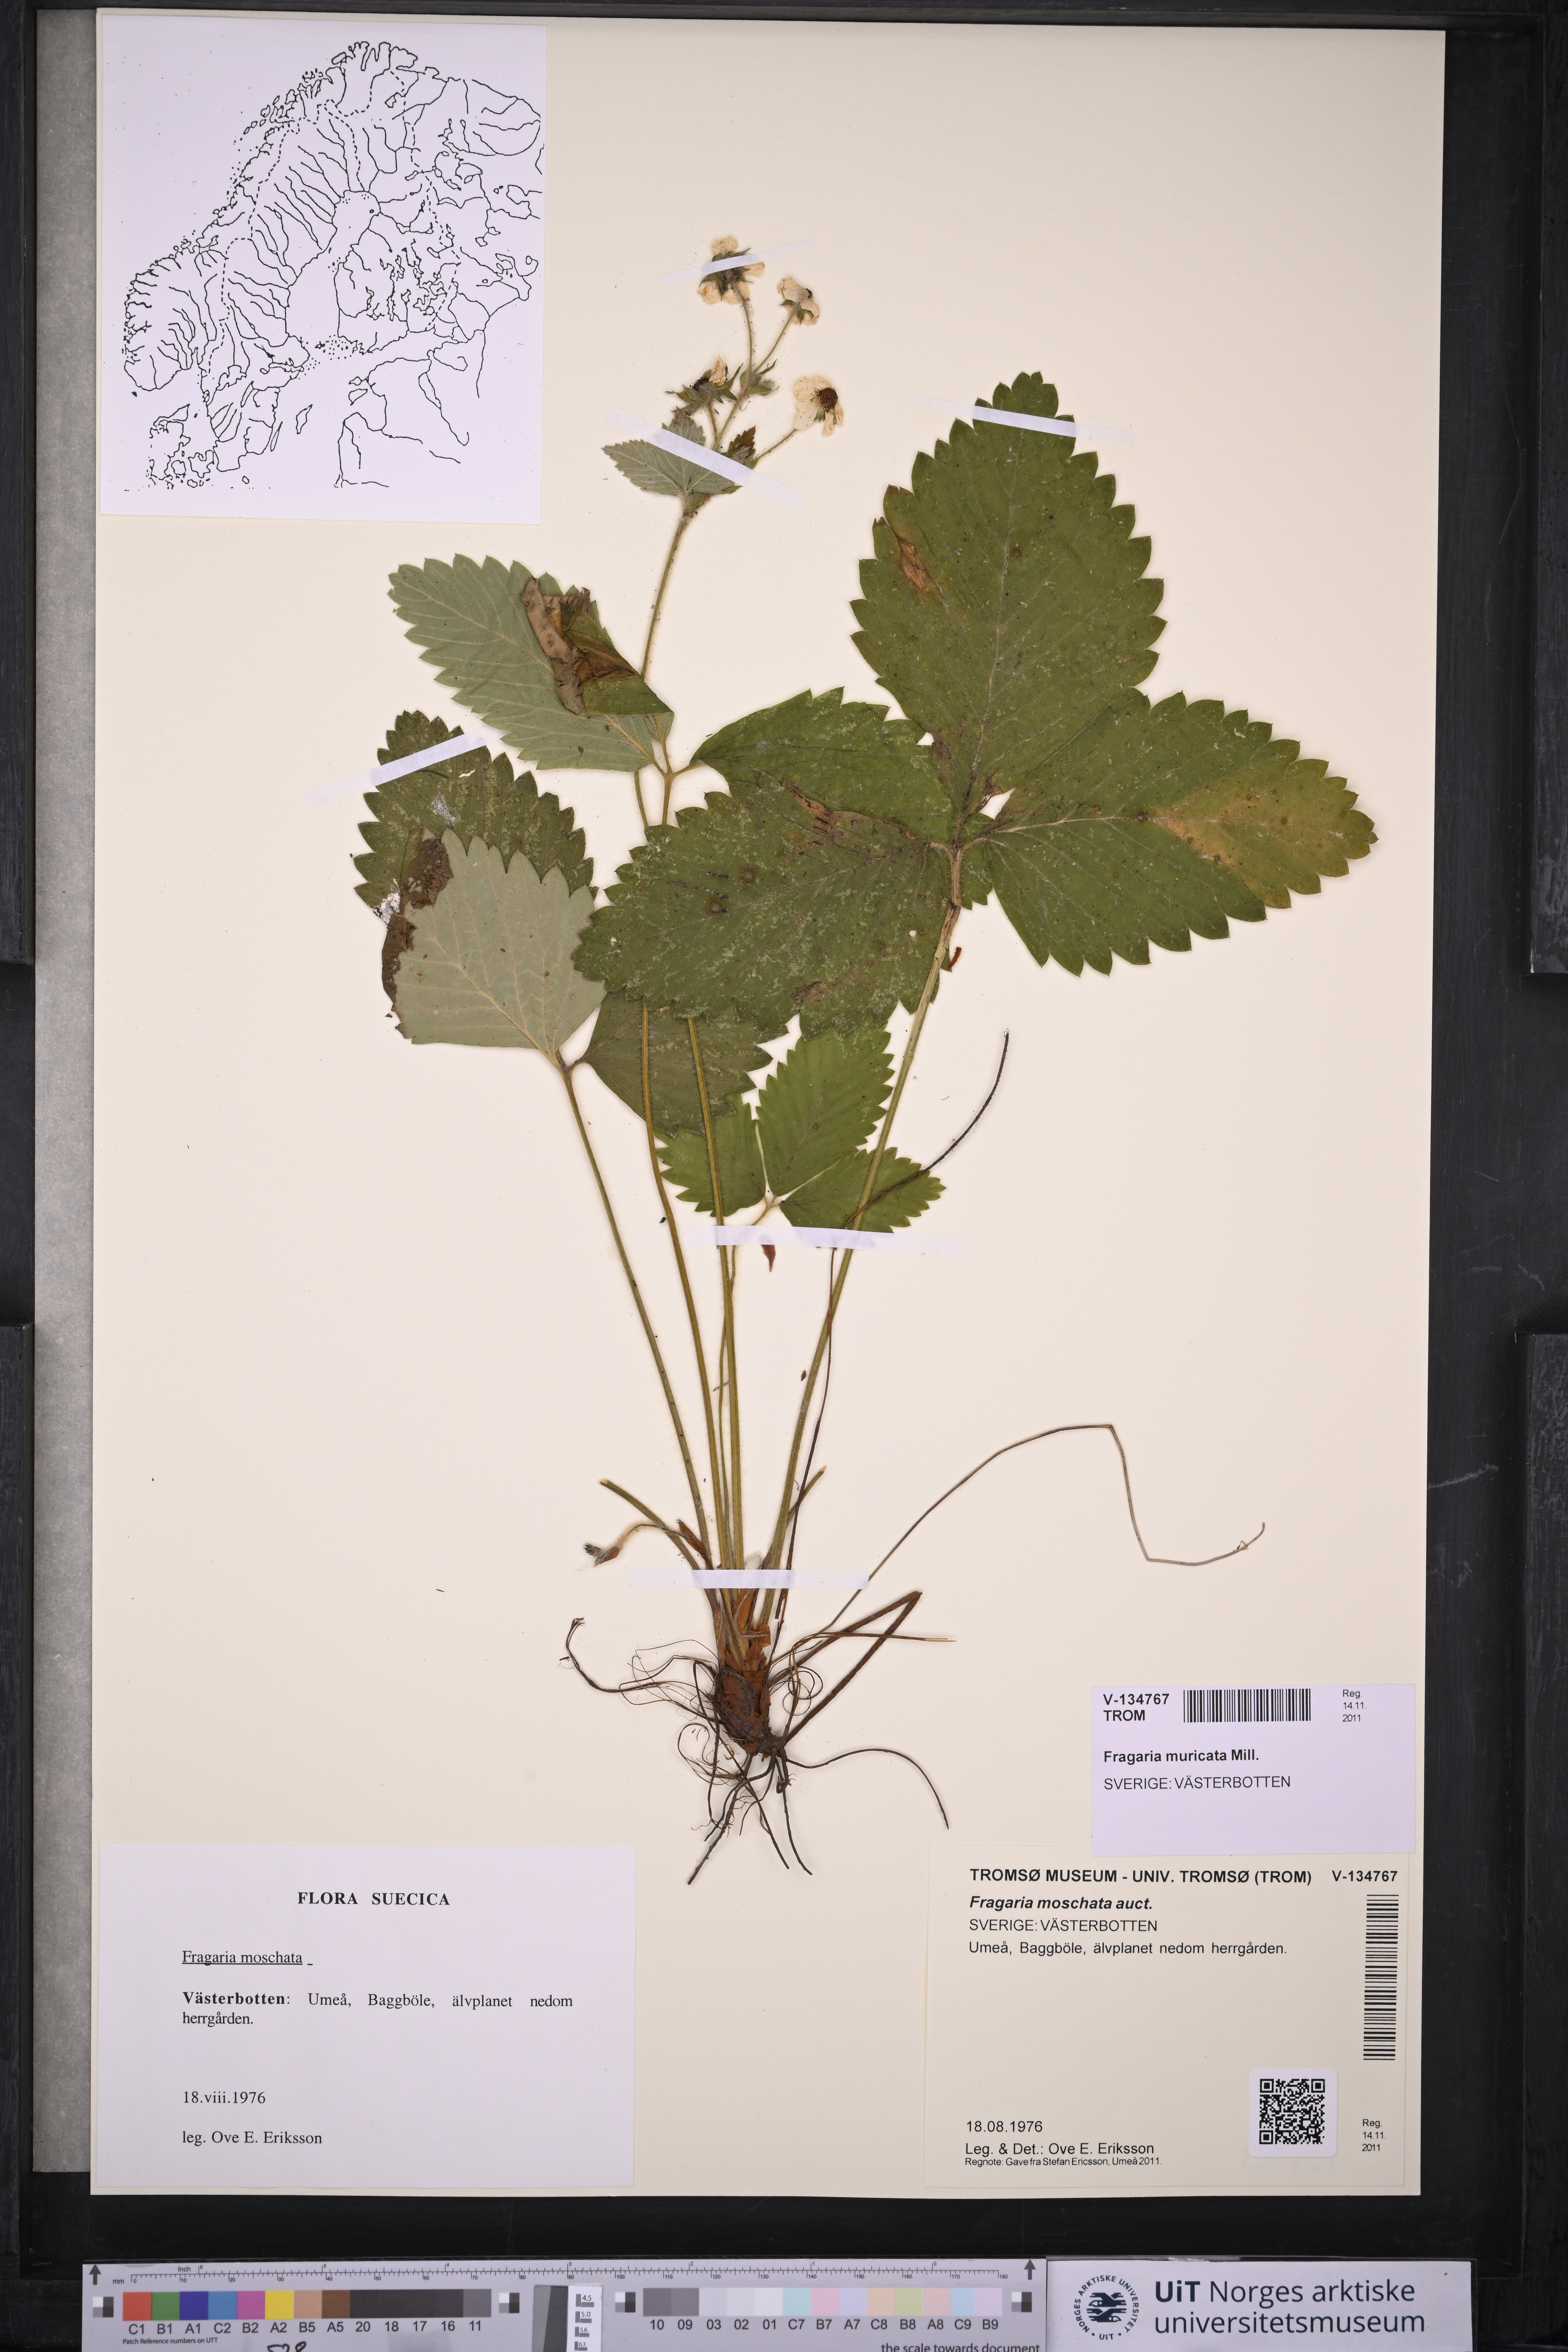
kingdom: Plantae
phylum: Tracheophyta
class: Magnoliopsida
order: Rosales
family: Rosaceae
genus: Fragaria
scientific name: Fragaria moschata
